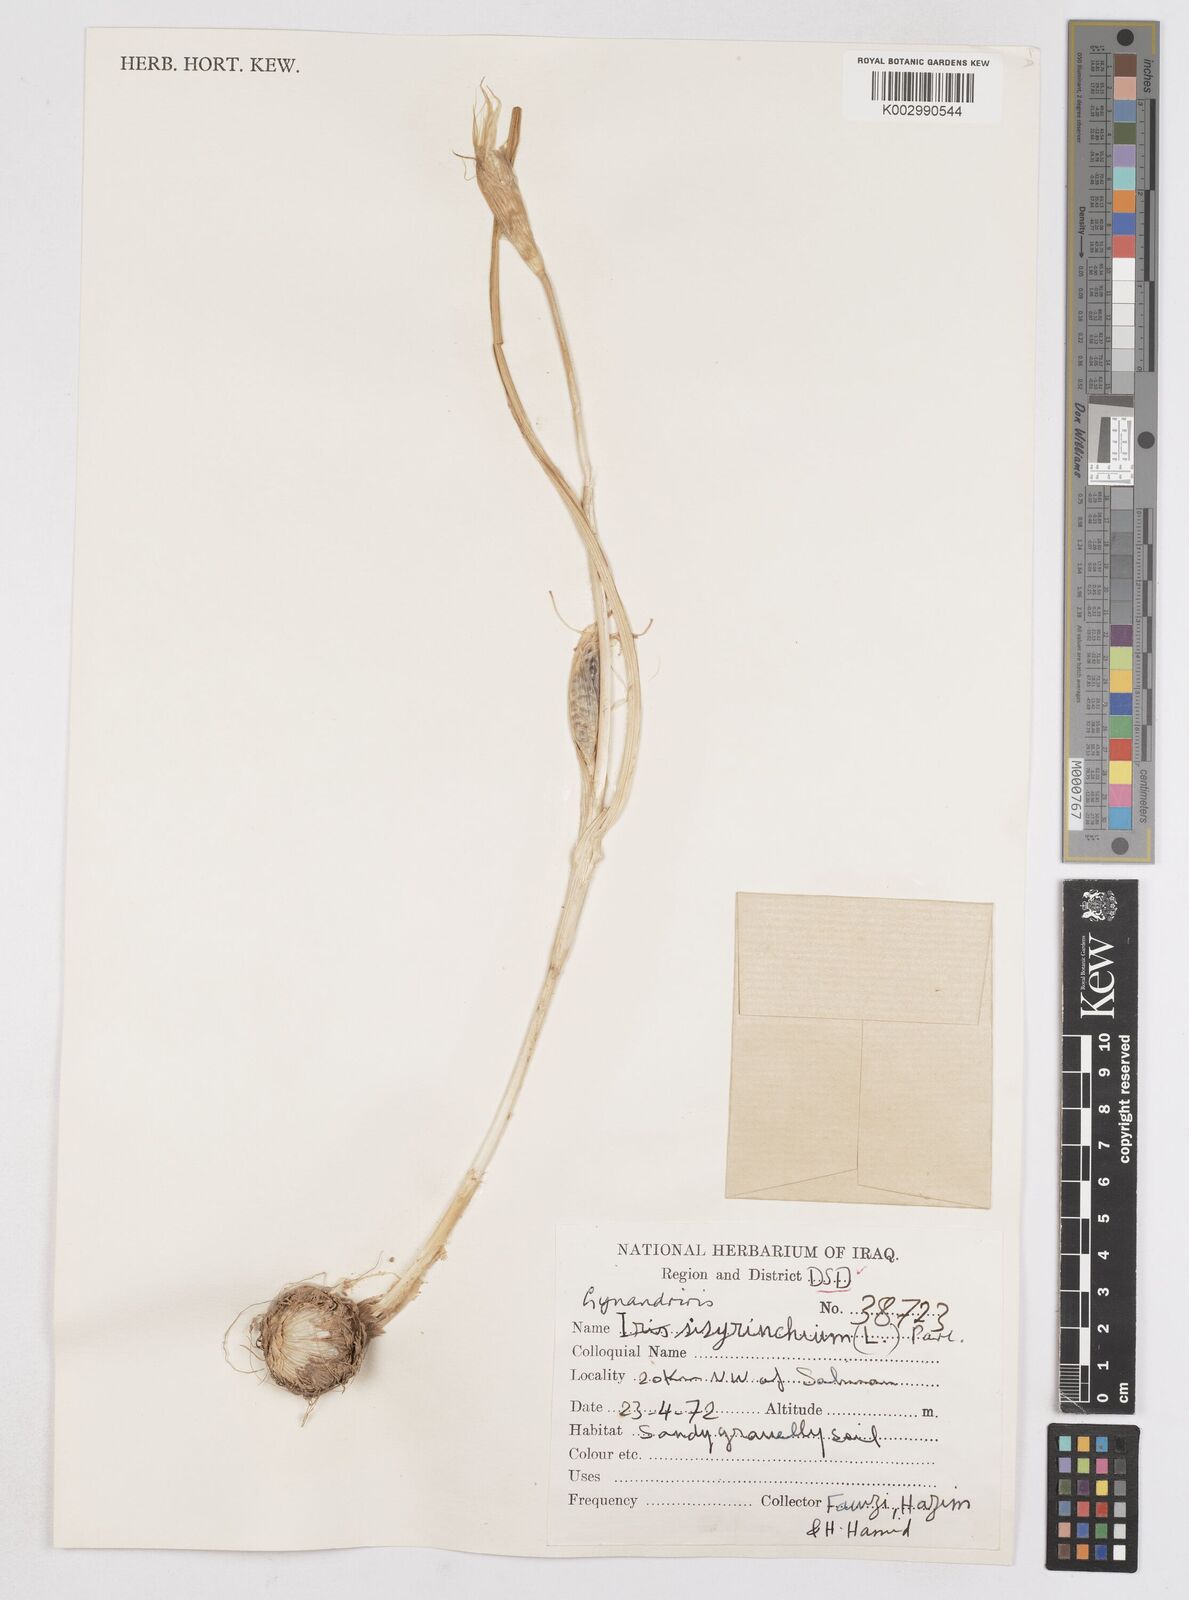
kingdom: Plantae
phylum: Tracheophyta
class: Liliopsida
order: Asparagales
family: Iridaceae
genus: Moraea
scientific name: Moraea sisyrinchium
